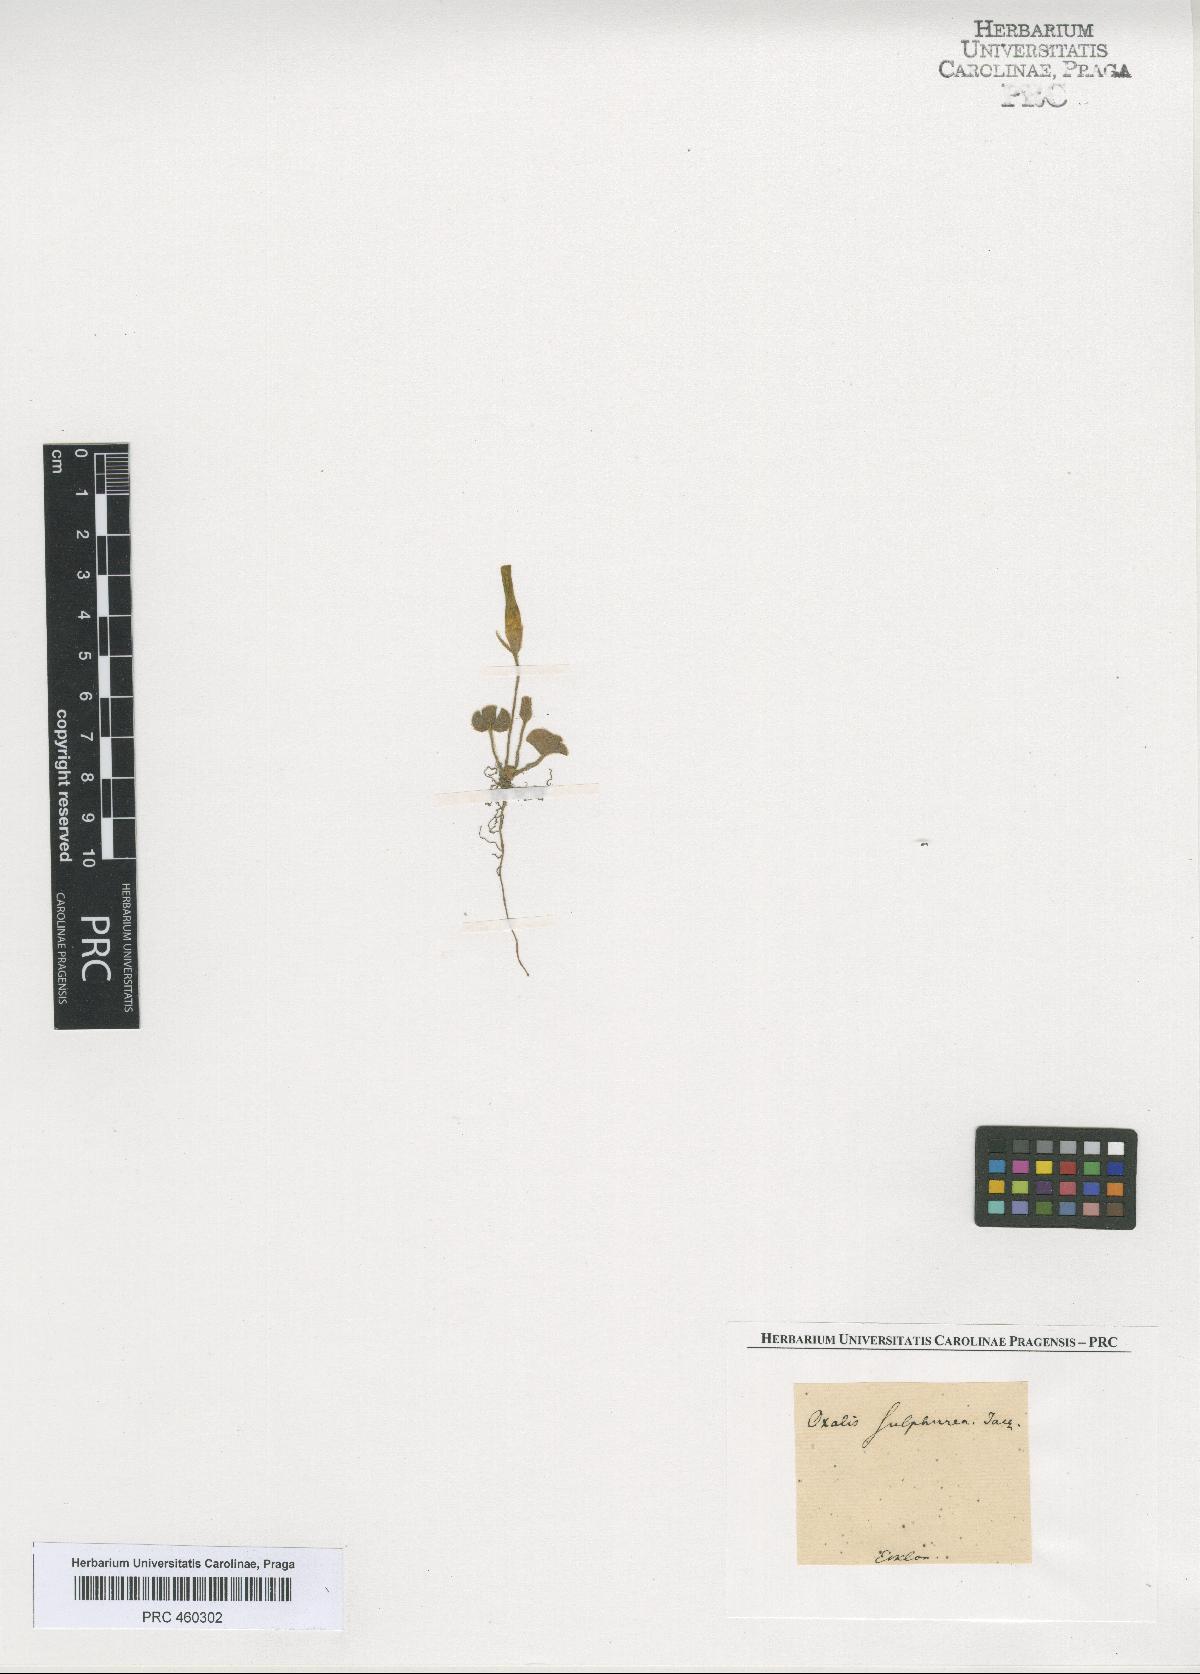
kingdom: Plantae
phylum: Tracheophyta
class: Magnoliopsida
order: Oxalidales
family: Oxalidaceae
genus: Oxalis
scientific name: Oxalis pulchella
